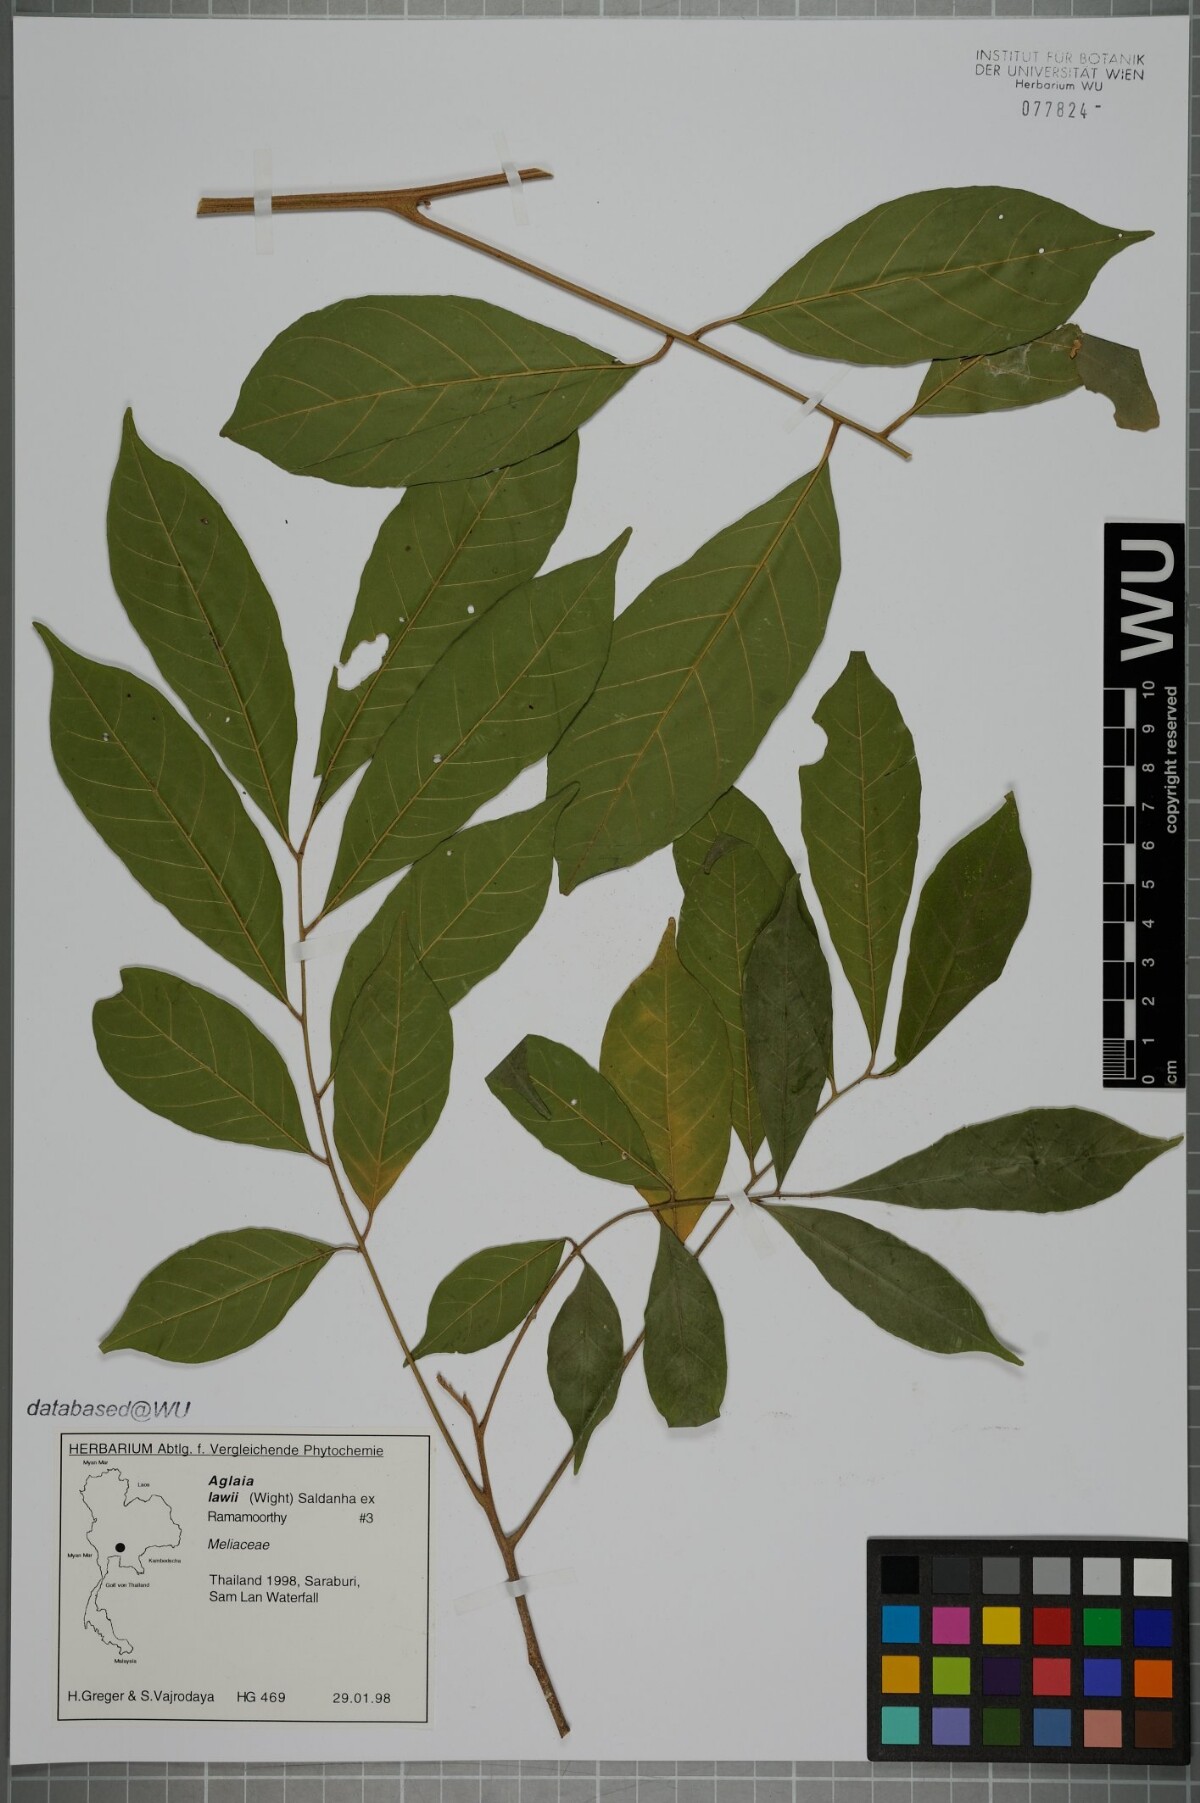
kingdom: Plantae
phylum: Tracheophyta
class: Magnoliopsida
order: Sapindales
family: Meliaceae
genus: Aglaia
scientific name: Aglaia lawii
